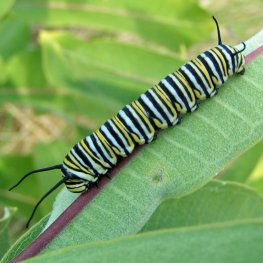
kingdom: Animalia
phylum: Arthropoda
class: Insecta
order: Lepidoptera
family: Nymphalidae
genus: Danaus
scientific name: Danaus plexippus
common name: Monarch
